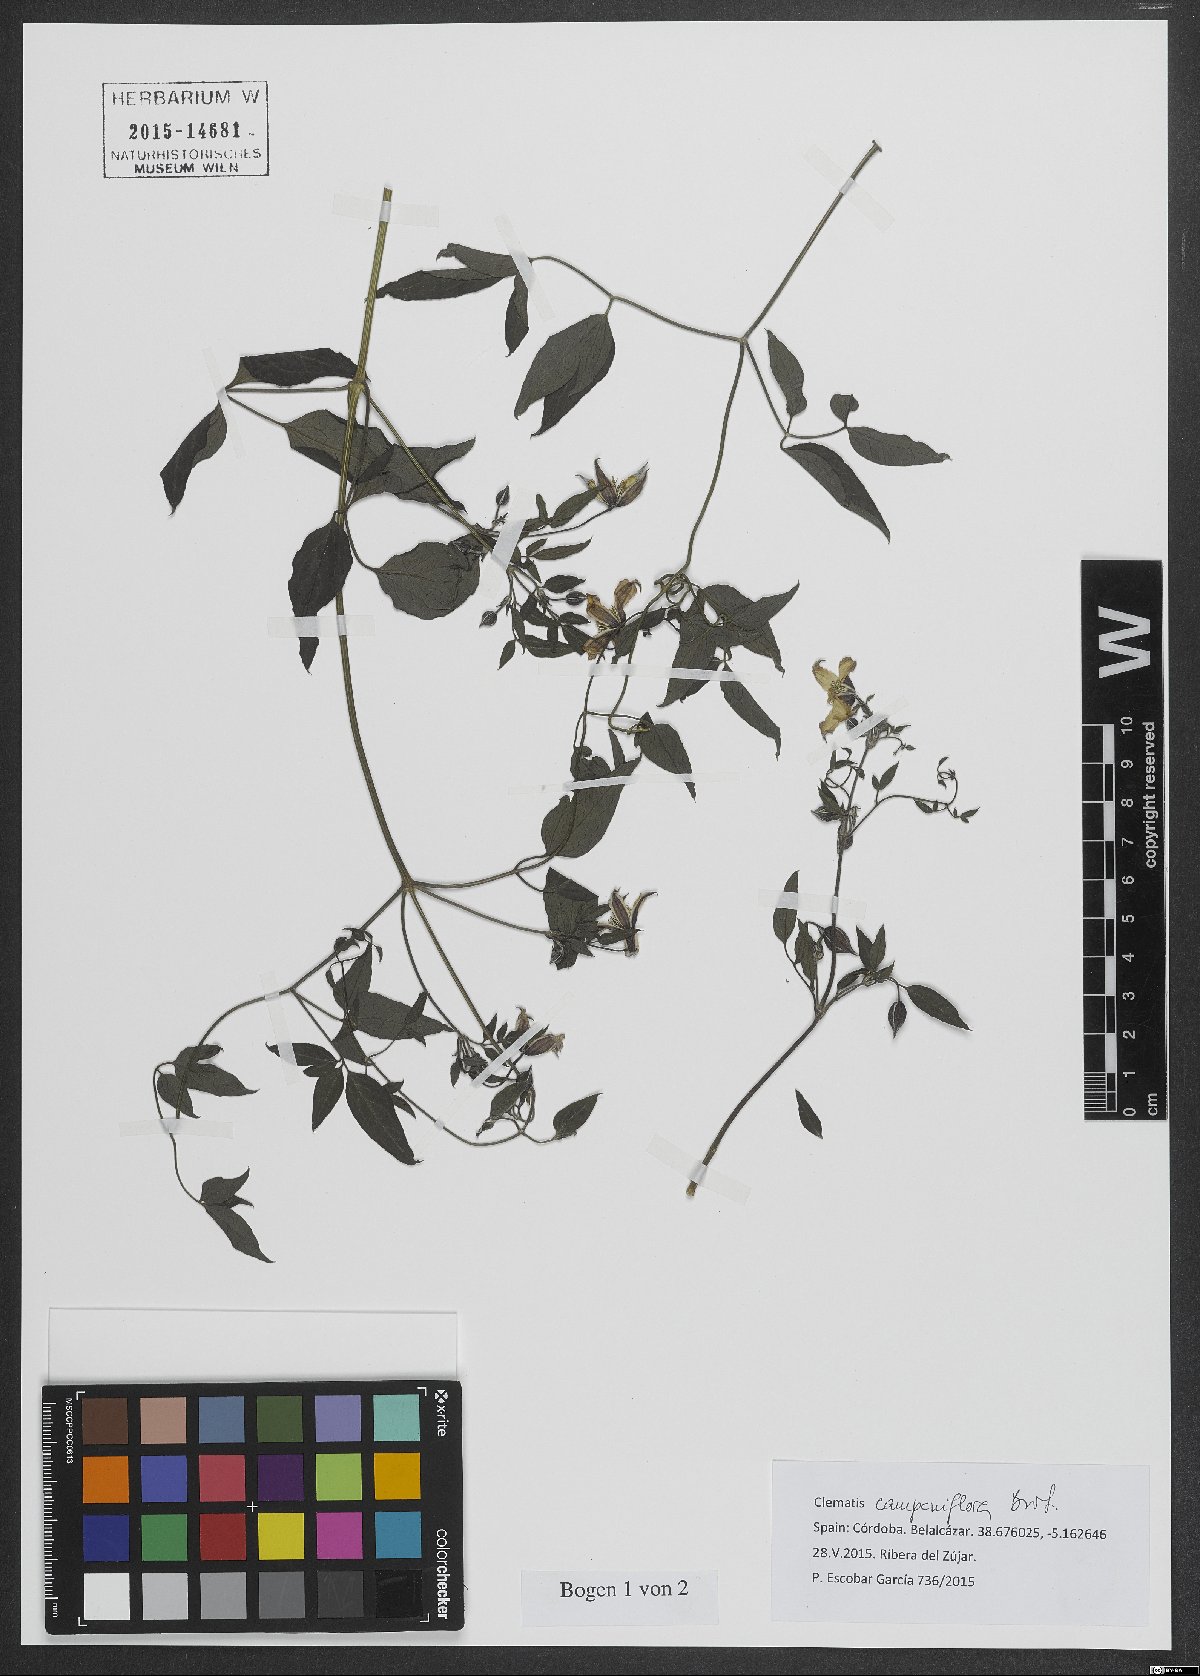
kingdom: Plantae
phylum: Tracheophyta
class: Magnoliopsida
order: Ranunculales
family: Ranunculaceae
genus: Clematis
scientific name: Clematis viticella
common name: Purple clematis
